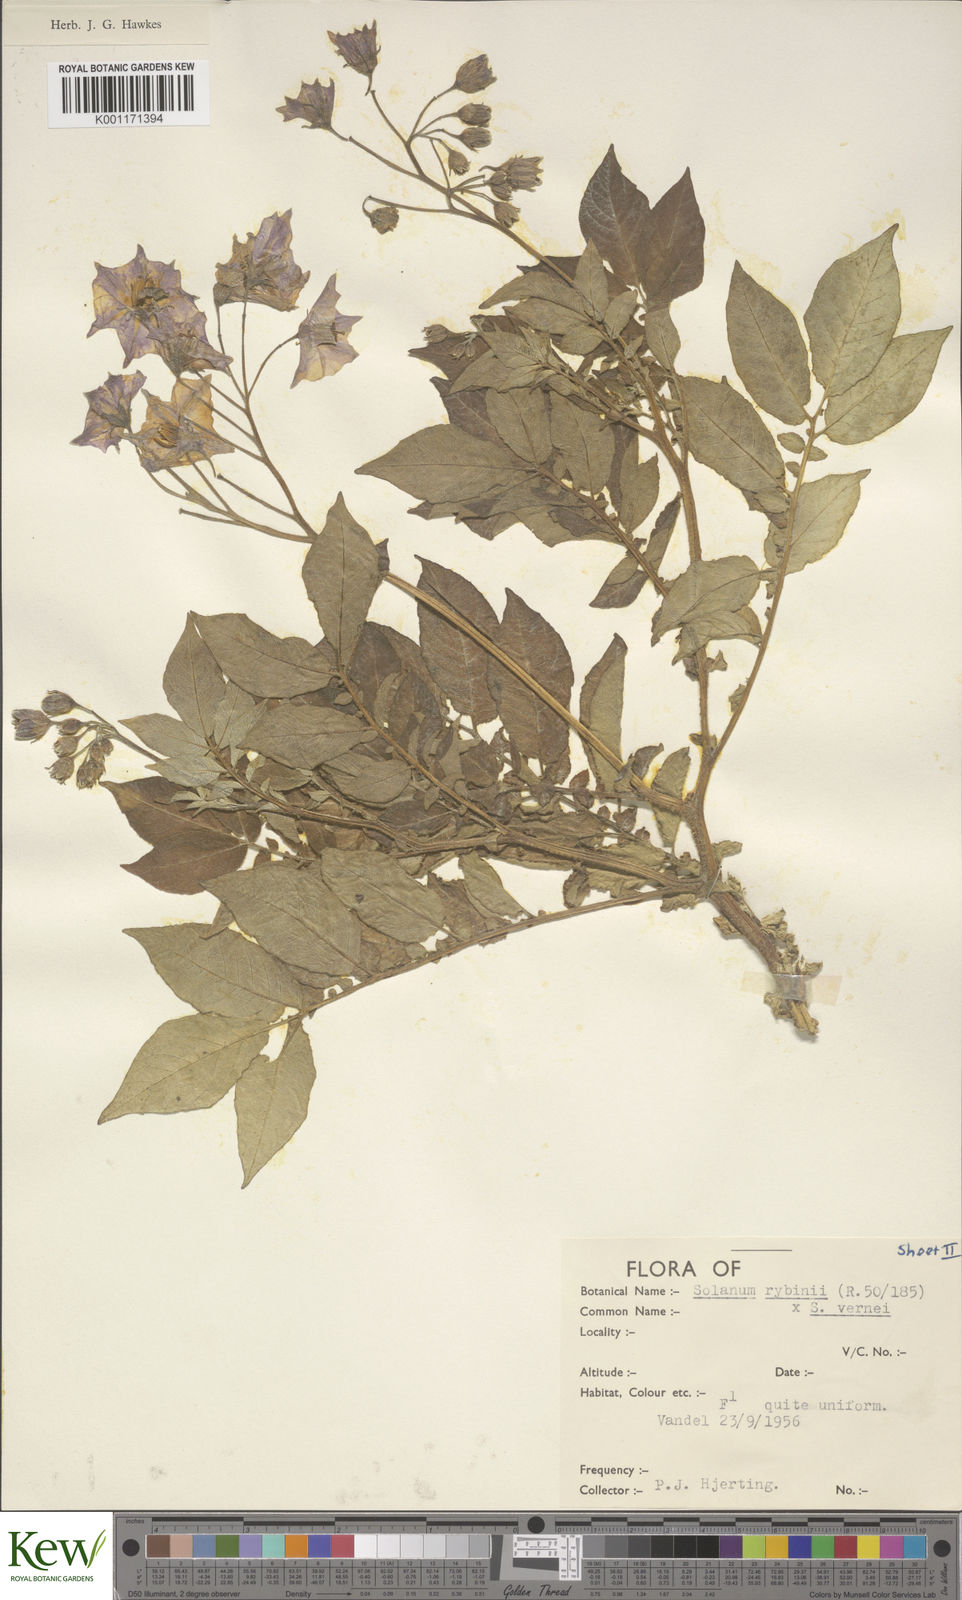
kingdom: Plantae
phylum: Tracheophyta
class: Magnoliopsida
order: Solanales
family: Solanaceae
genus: Solanum
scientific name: Solanum tuberosum
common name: Potato
